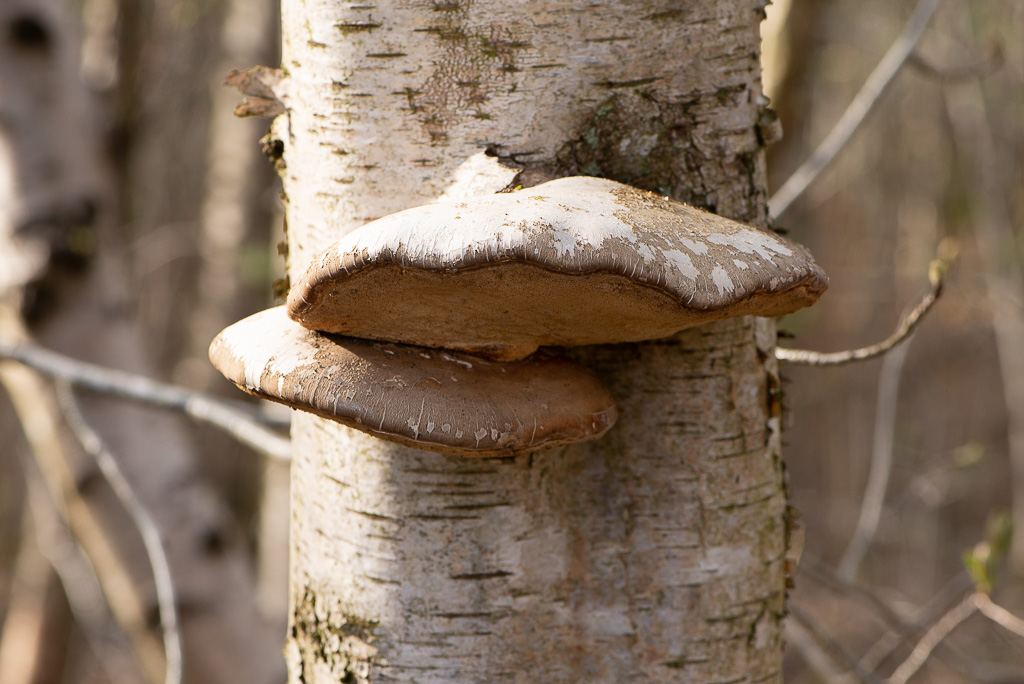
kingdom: Fungi
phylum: Basidiomycota
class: Agaricomycetes
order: Polyporales
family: Fomitopsidaceae
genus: Fomitopsis
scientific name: Fomitopsis betulina
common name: birkeporesvamp
